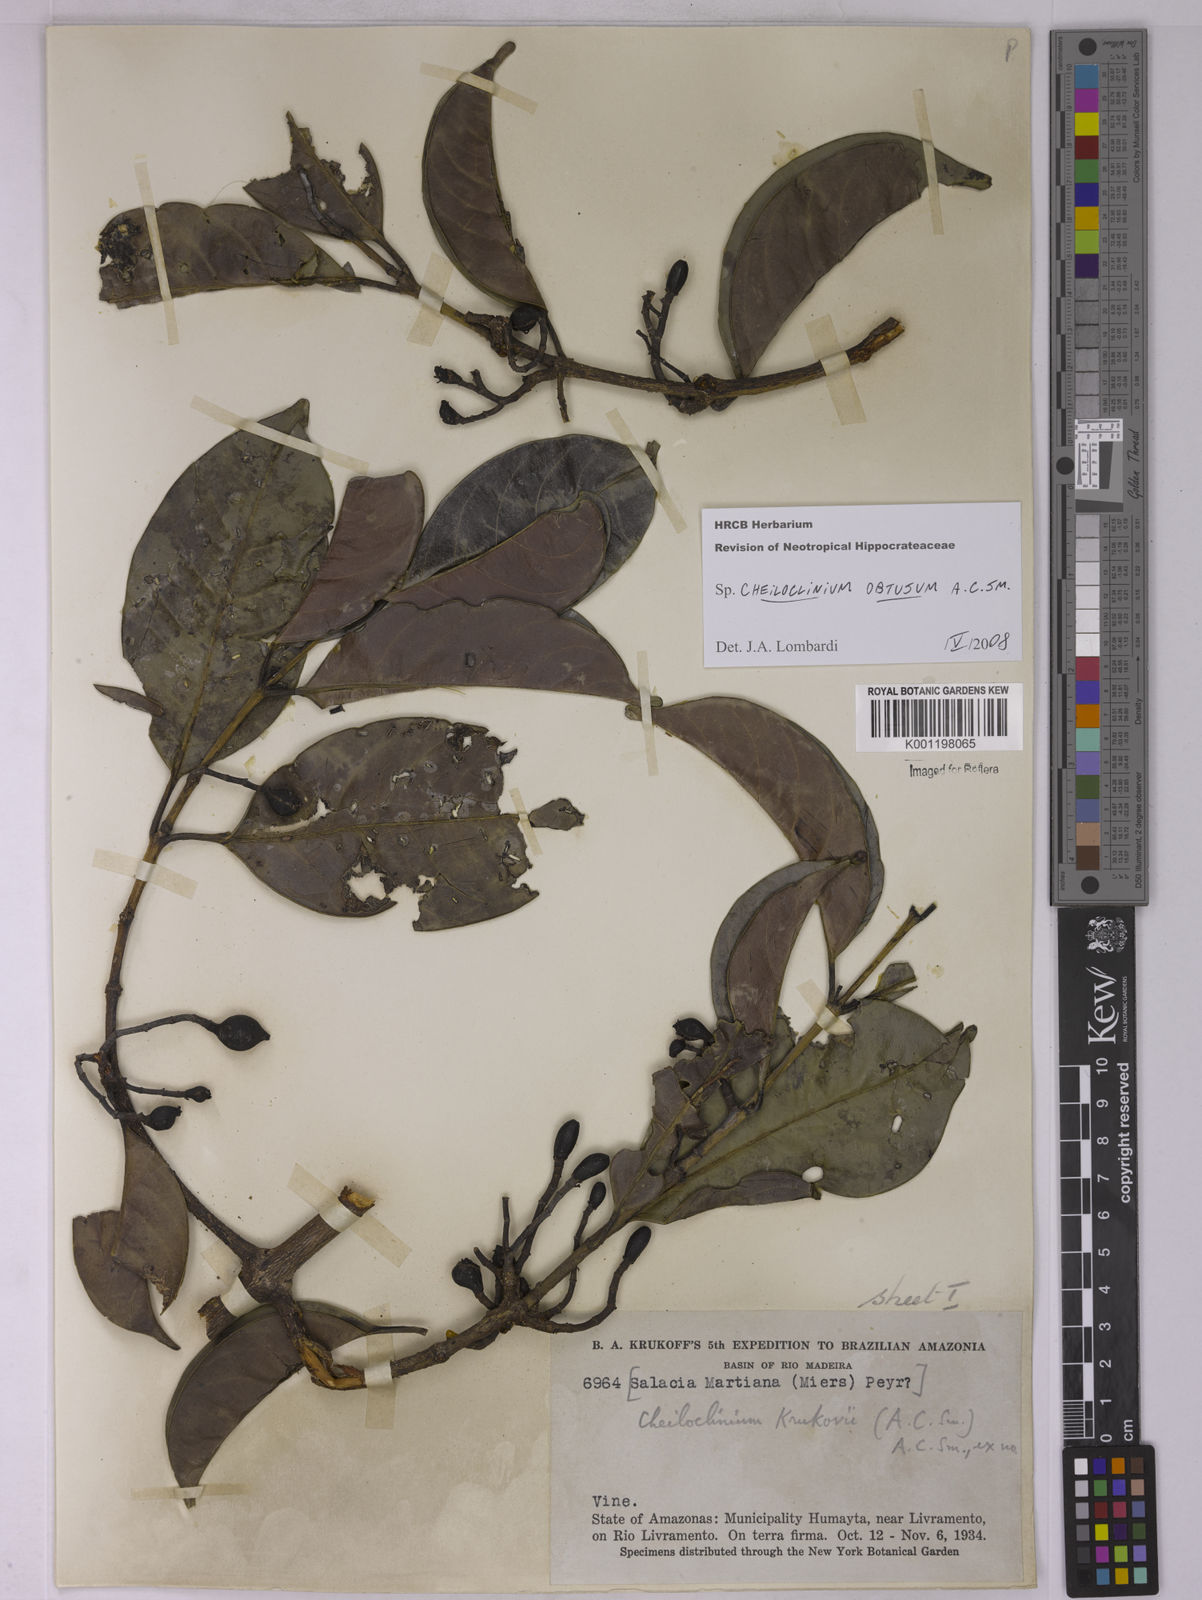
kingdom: Plantae
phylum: Tracheophyta
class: Magnoliopsida
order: Celastrales
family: Celastraceae
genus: Cheiloclinium
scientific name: Cheiloclinium obtusum
